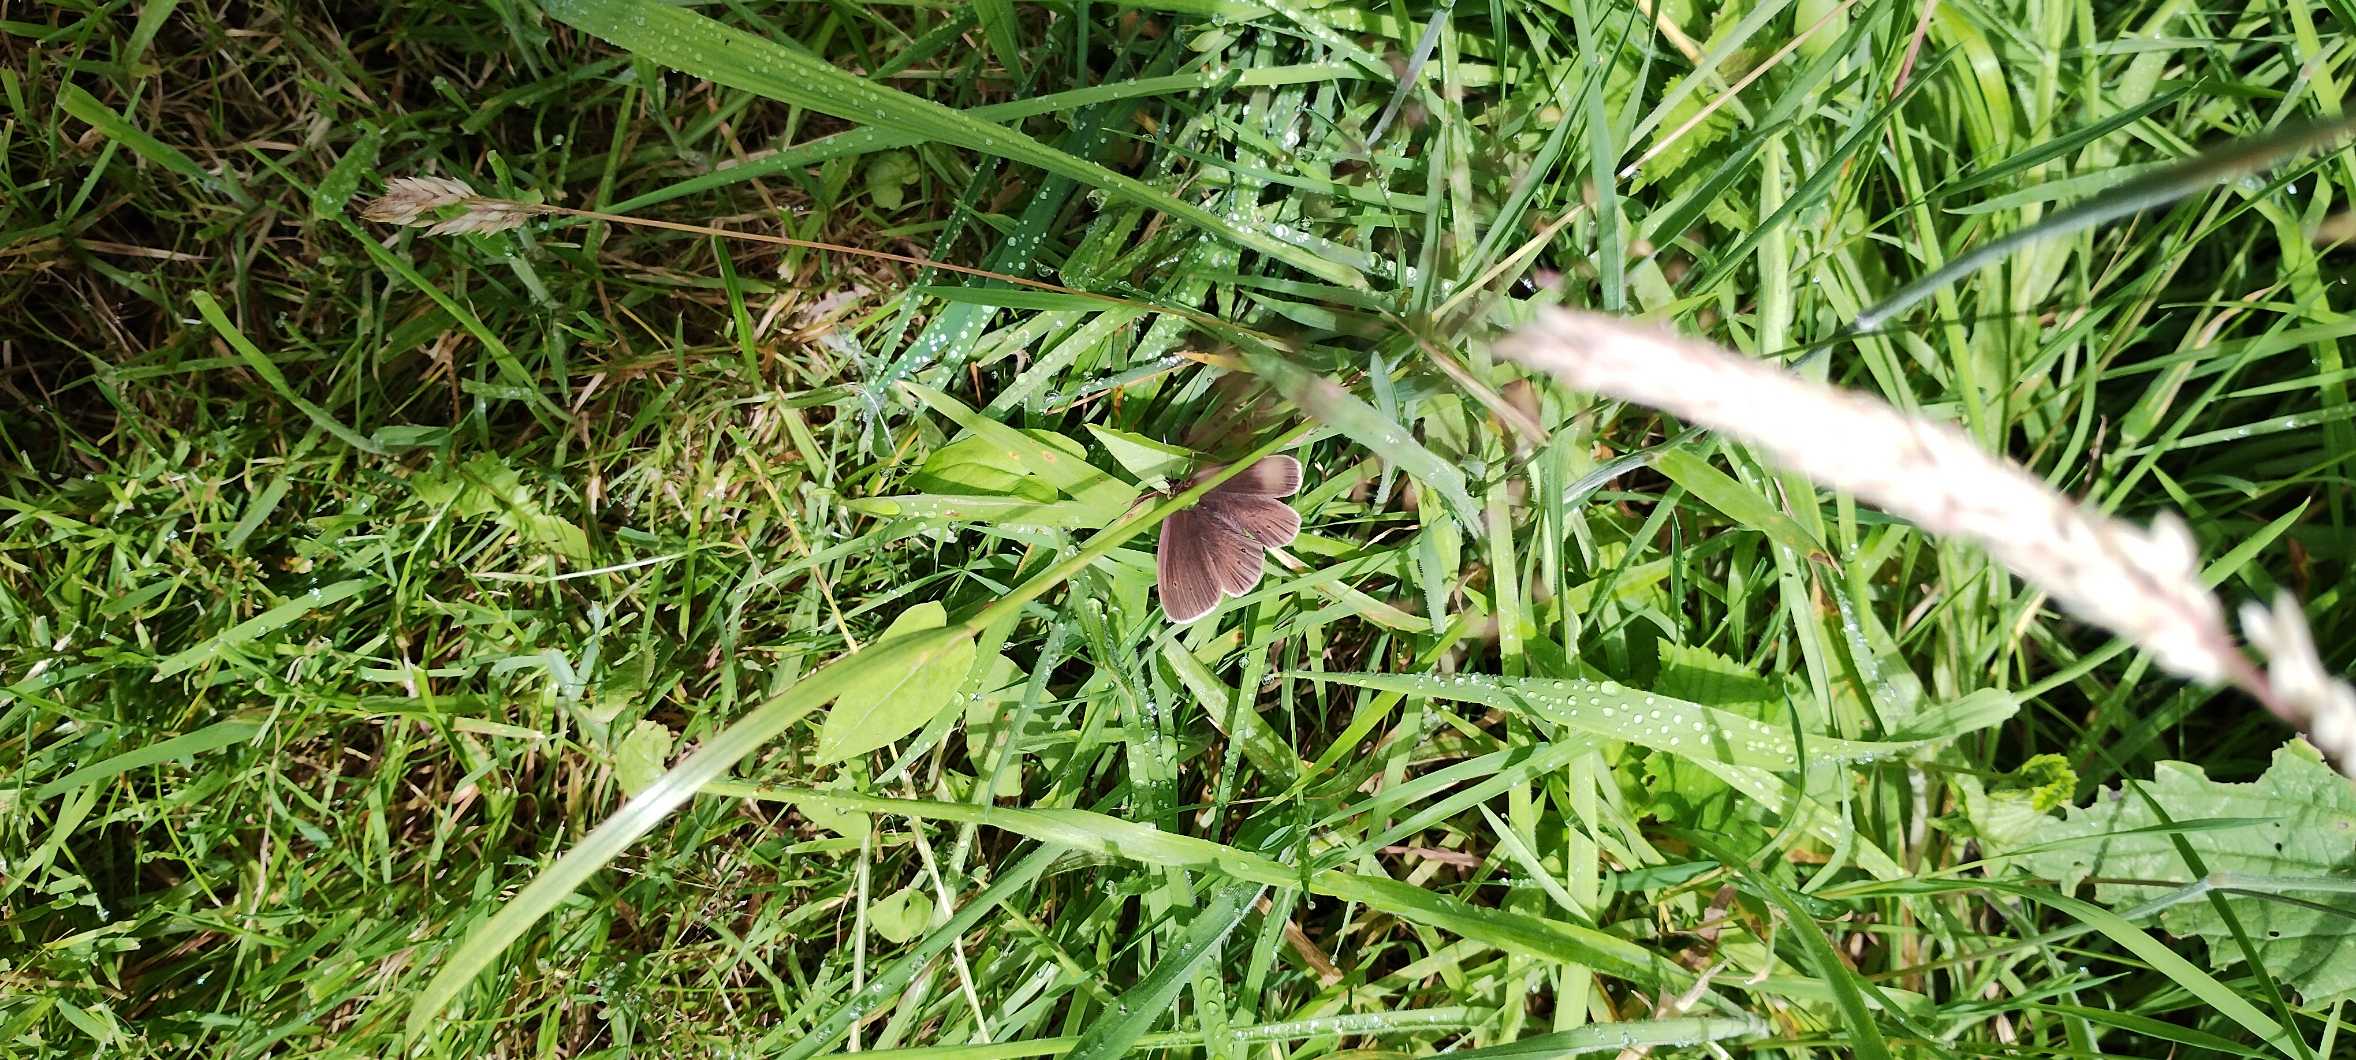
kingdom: Animalia
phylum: Arthropoda
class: Insecta
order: Lepidoptera
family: Nymphalidae
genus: Aphantopus
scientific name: Aphantopus hyperantus
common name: Engrandøje
